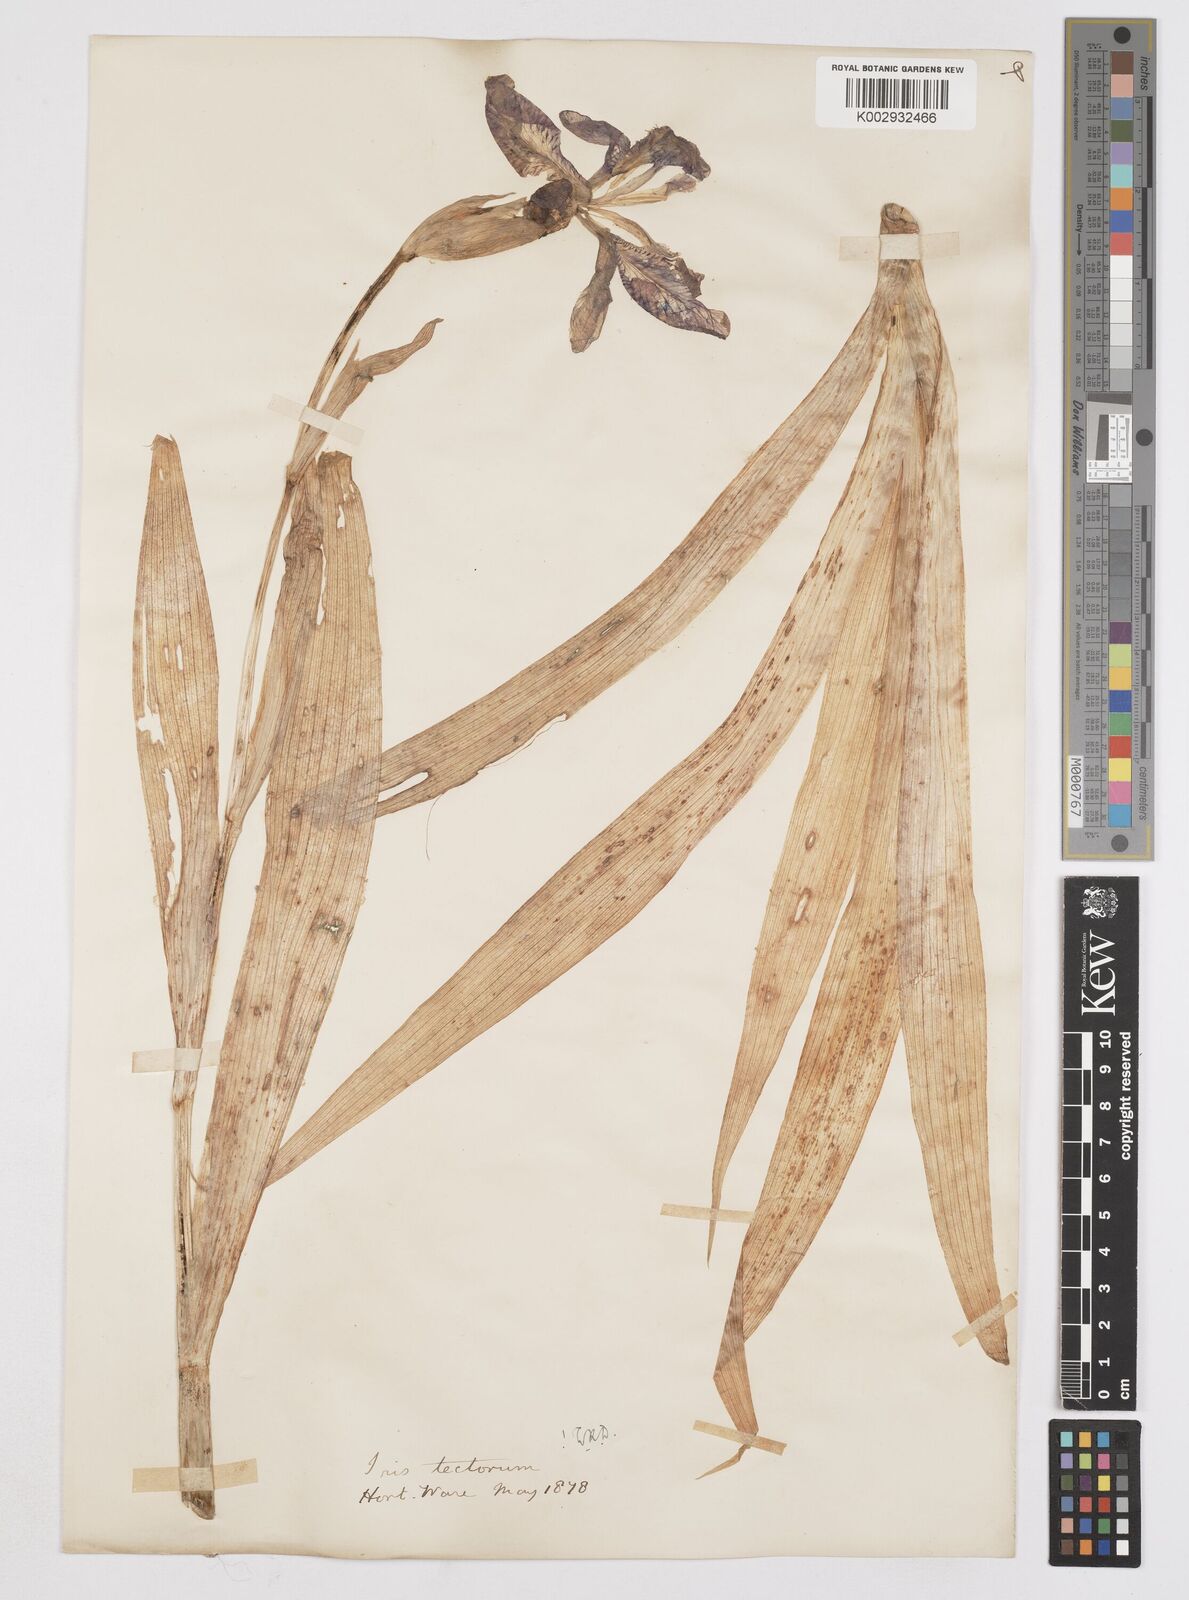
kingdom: Plantae
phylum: Tracheophyta
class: Liliopsida
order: Asparagales
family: Iridaceae
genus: Iris
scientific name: Iris tectorum
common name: Wall iris
